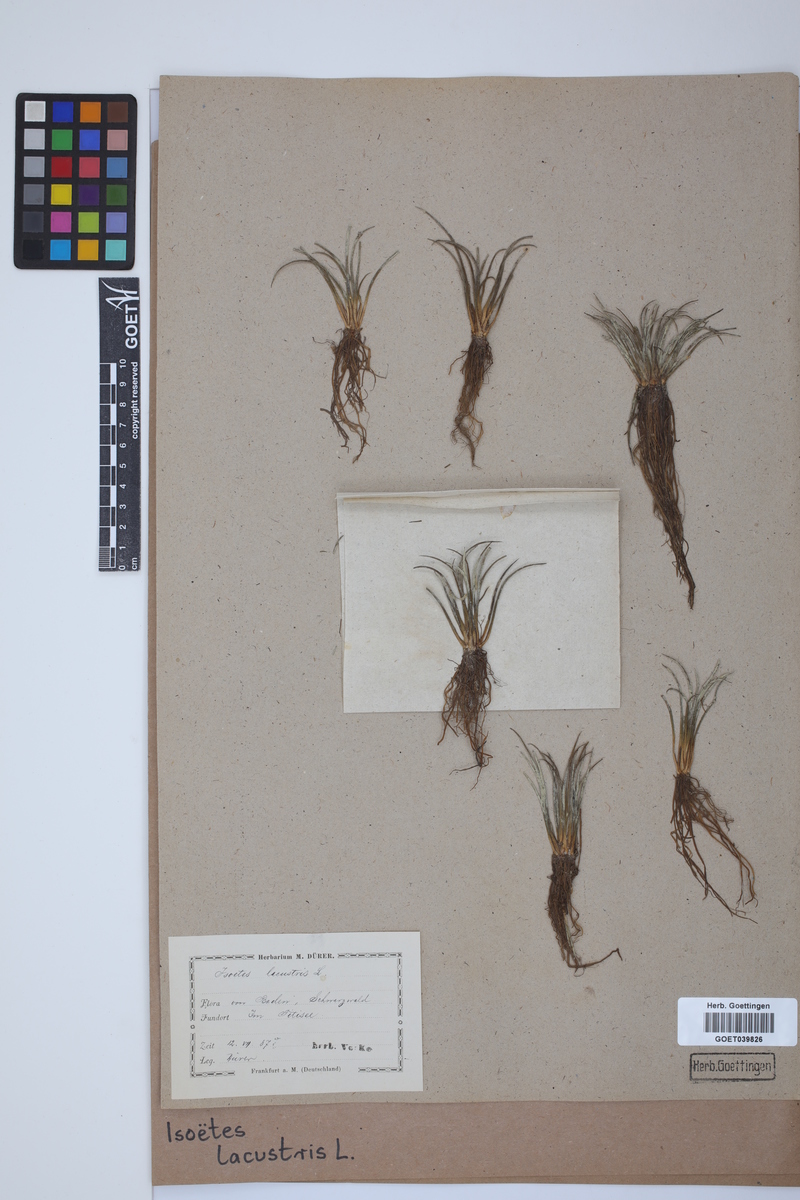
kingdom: Plantae
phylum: Tracheophyta
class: Lycopodiopsida
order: Isoetales
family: Isoetaceae
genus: Isoetes
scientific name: Isoetes lacustris
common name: Common quillwort
